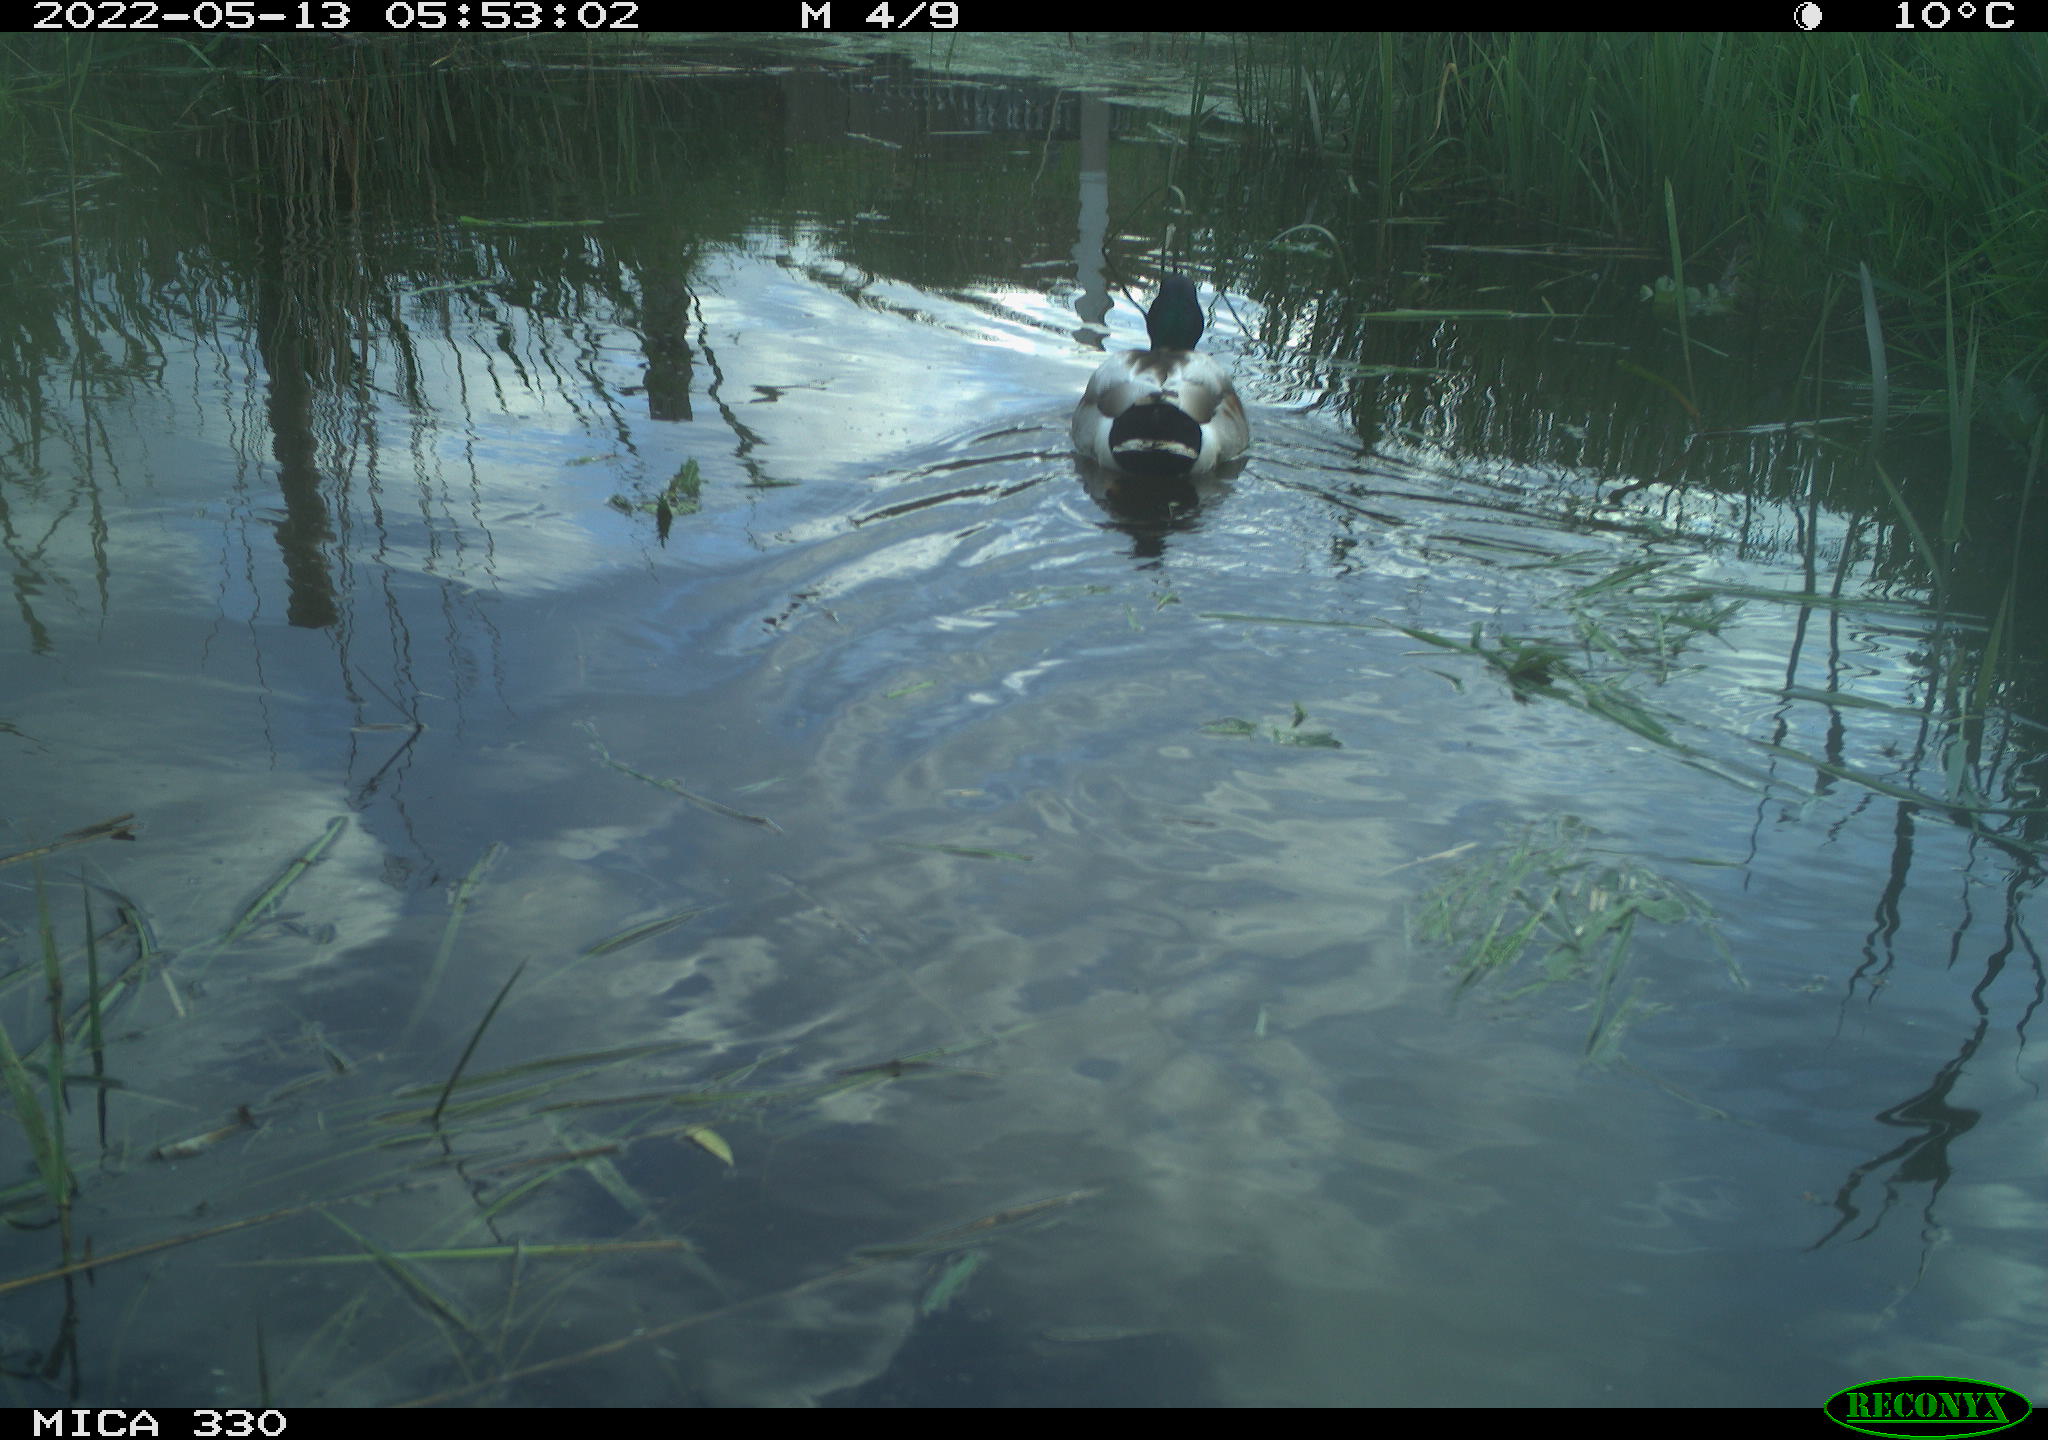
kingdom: Animalia
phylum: Chordata
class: Aves
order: Anseriformes
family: Anatidae
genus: Anas
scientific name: Anas platyrhynchos
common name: Mallard
